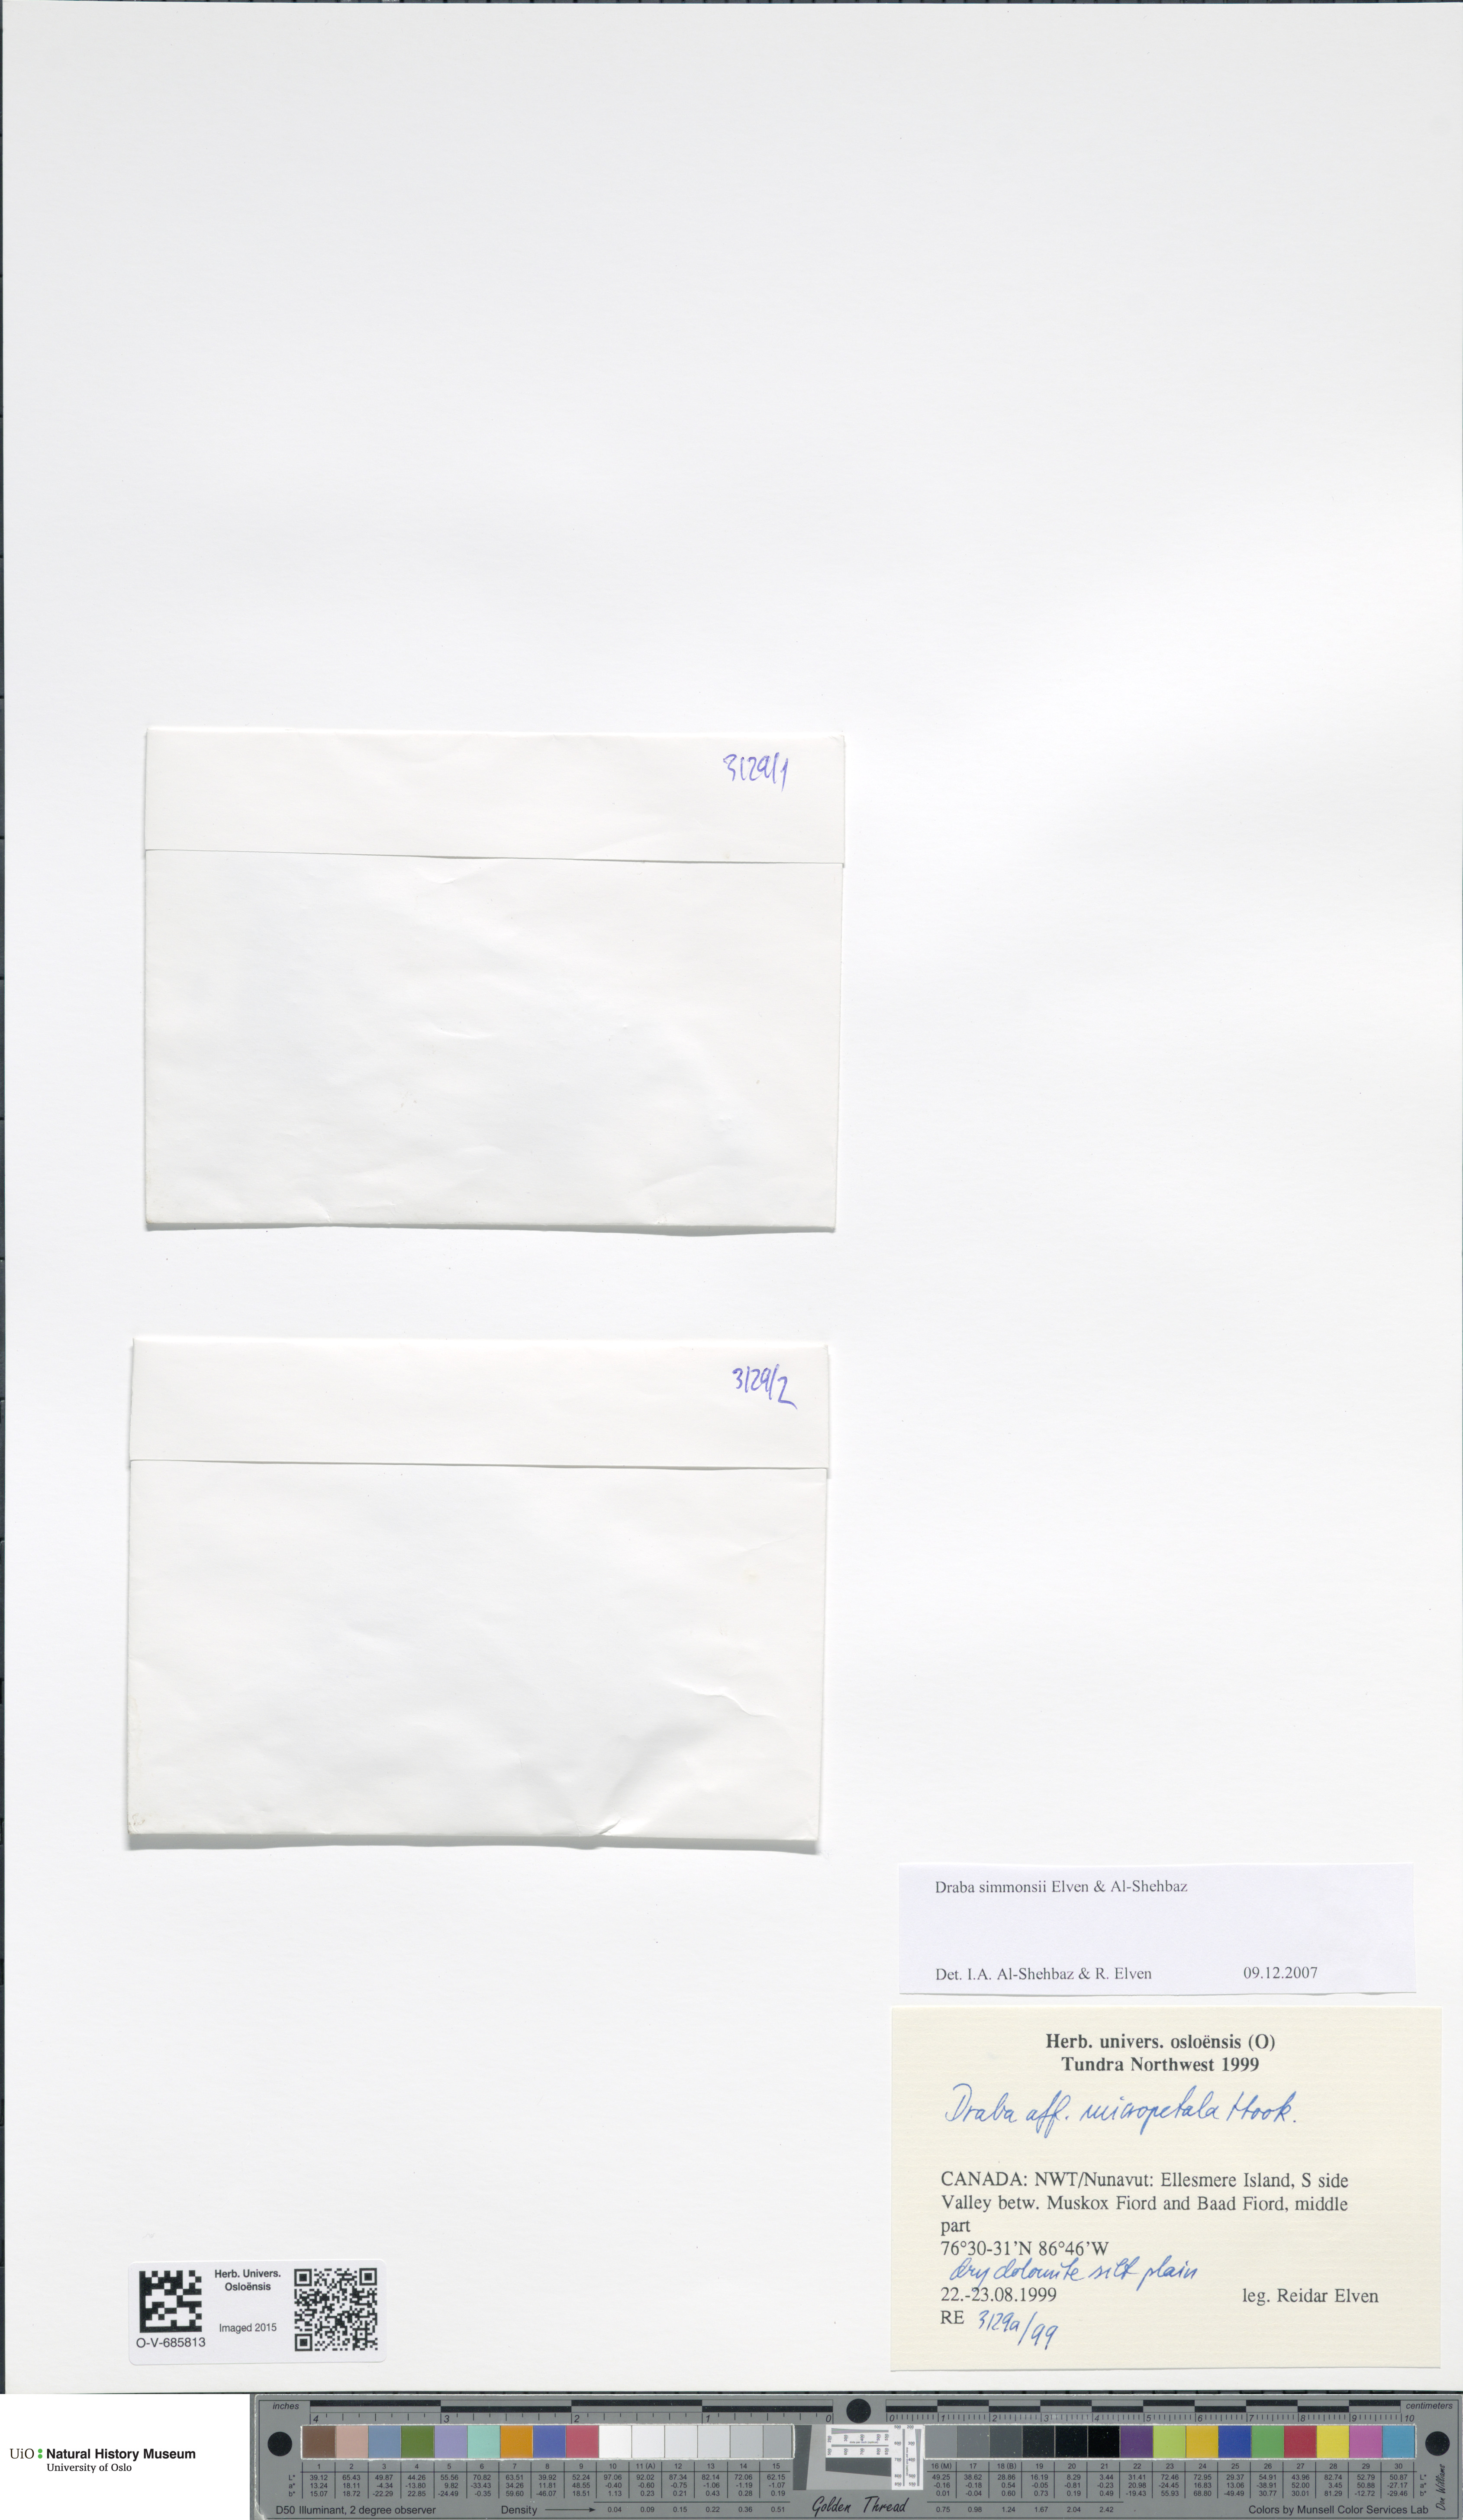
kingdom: Plantae
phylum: Tracheophyta
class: Magnoliopsida
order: Brassicales
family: Brassicaceae
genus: Draba
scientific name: Draba simmonsii
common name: Simmonds' whitlow-grass
